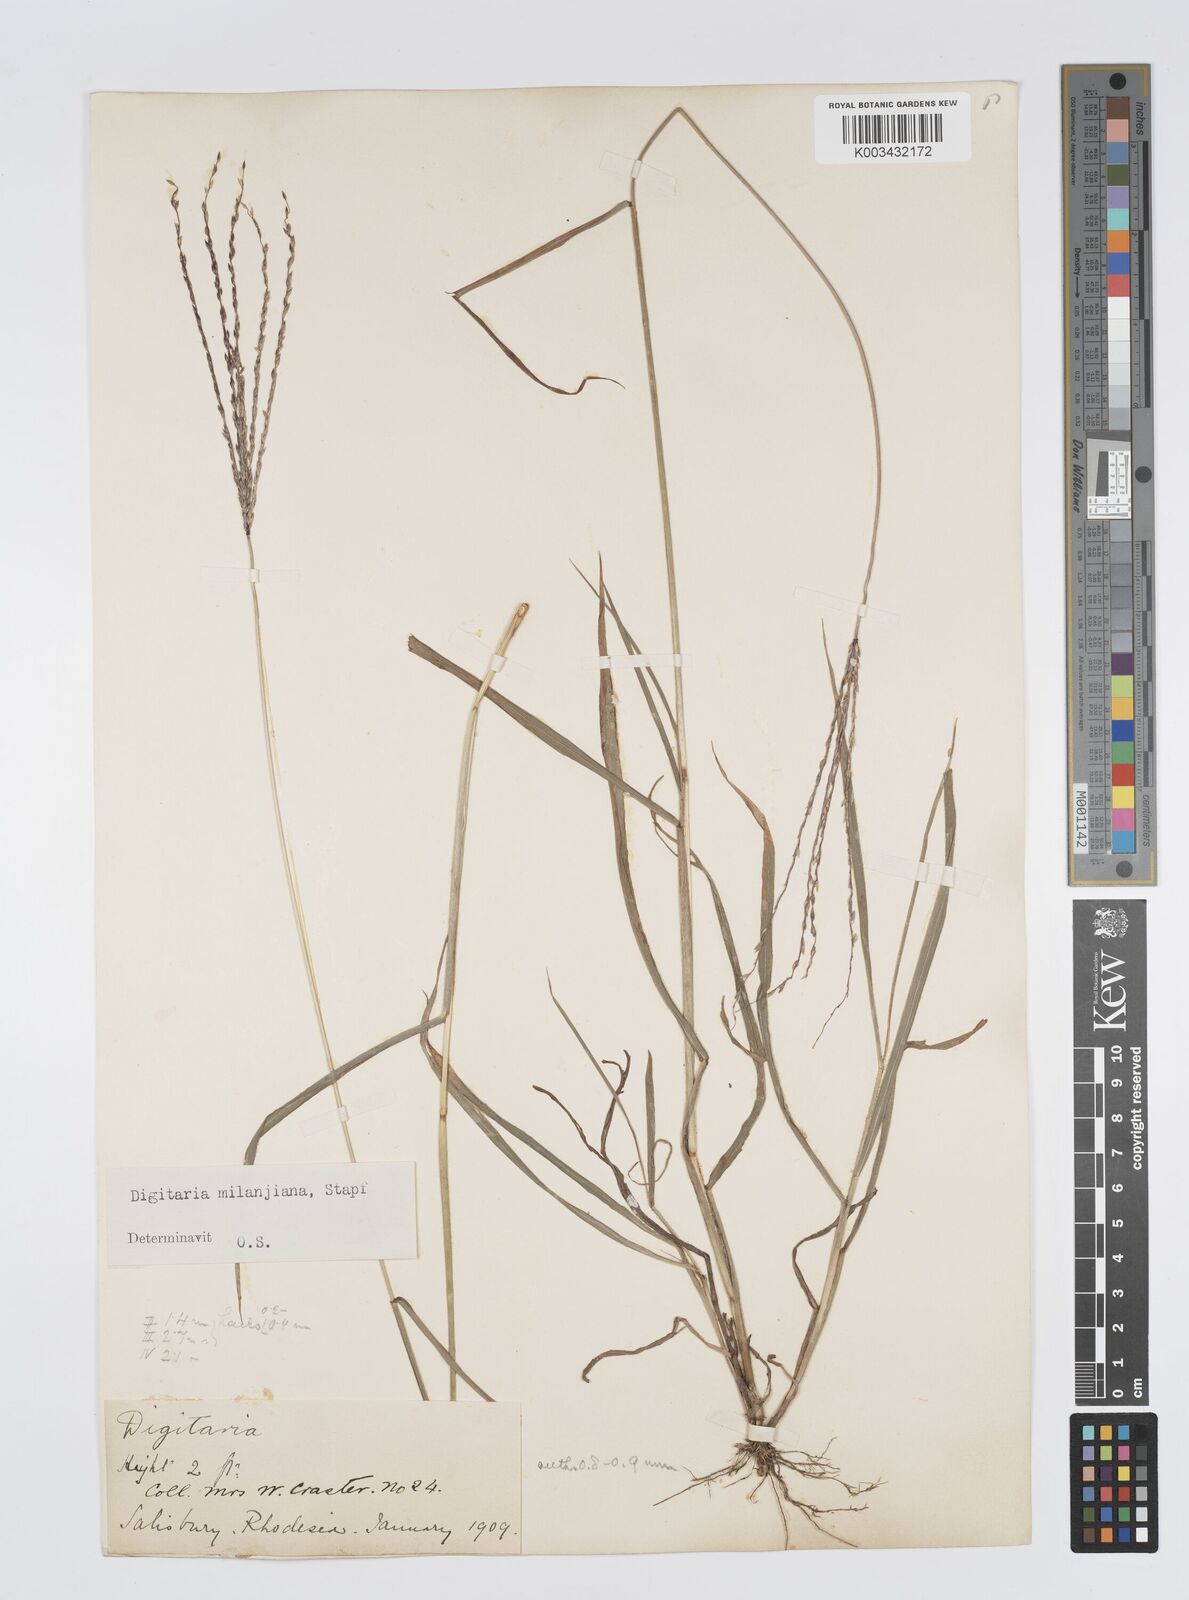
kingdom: Plantae
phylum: Tracheophyta
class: Liliopsida
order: Poales
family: Poaceae
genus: Digitaria
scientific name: Digitaria milanjiana
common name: Madagascar crabgrass
